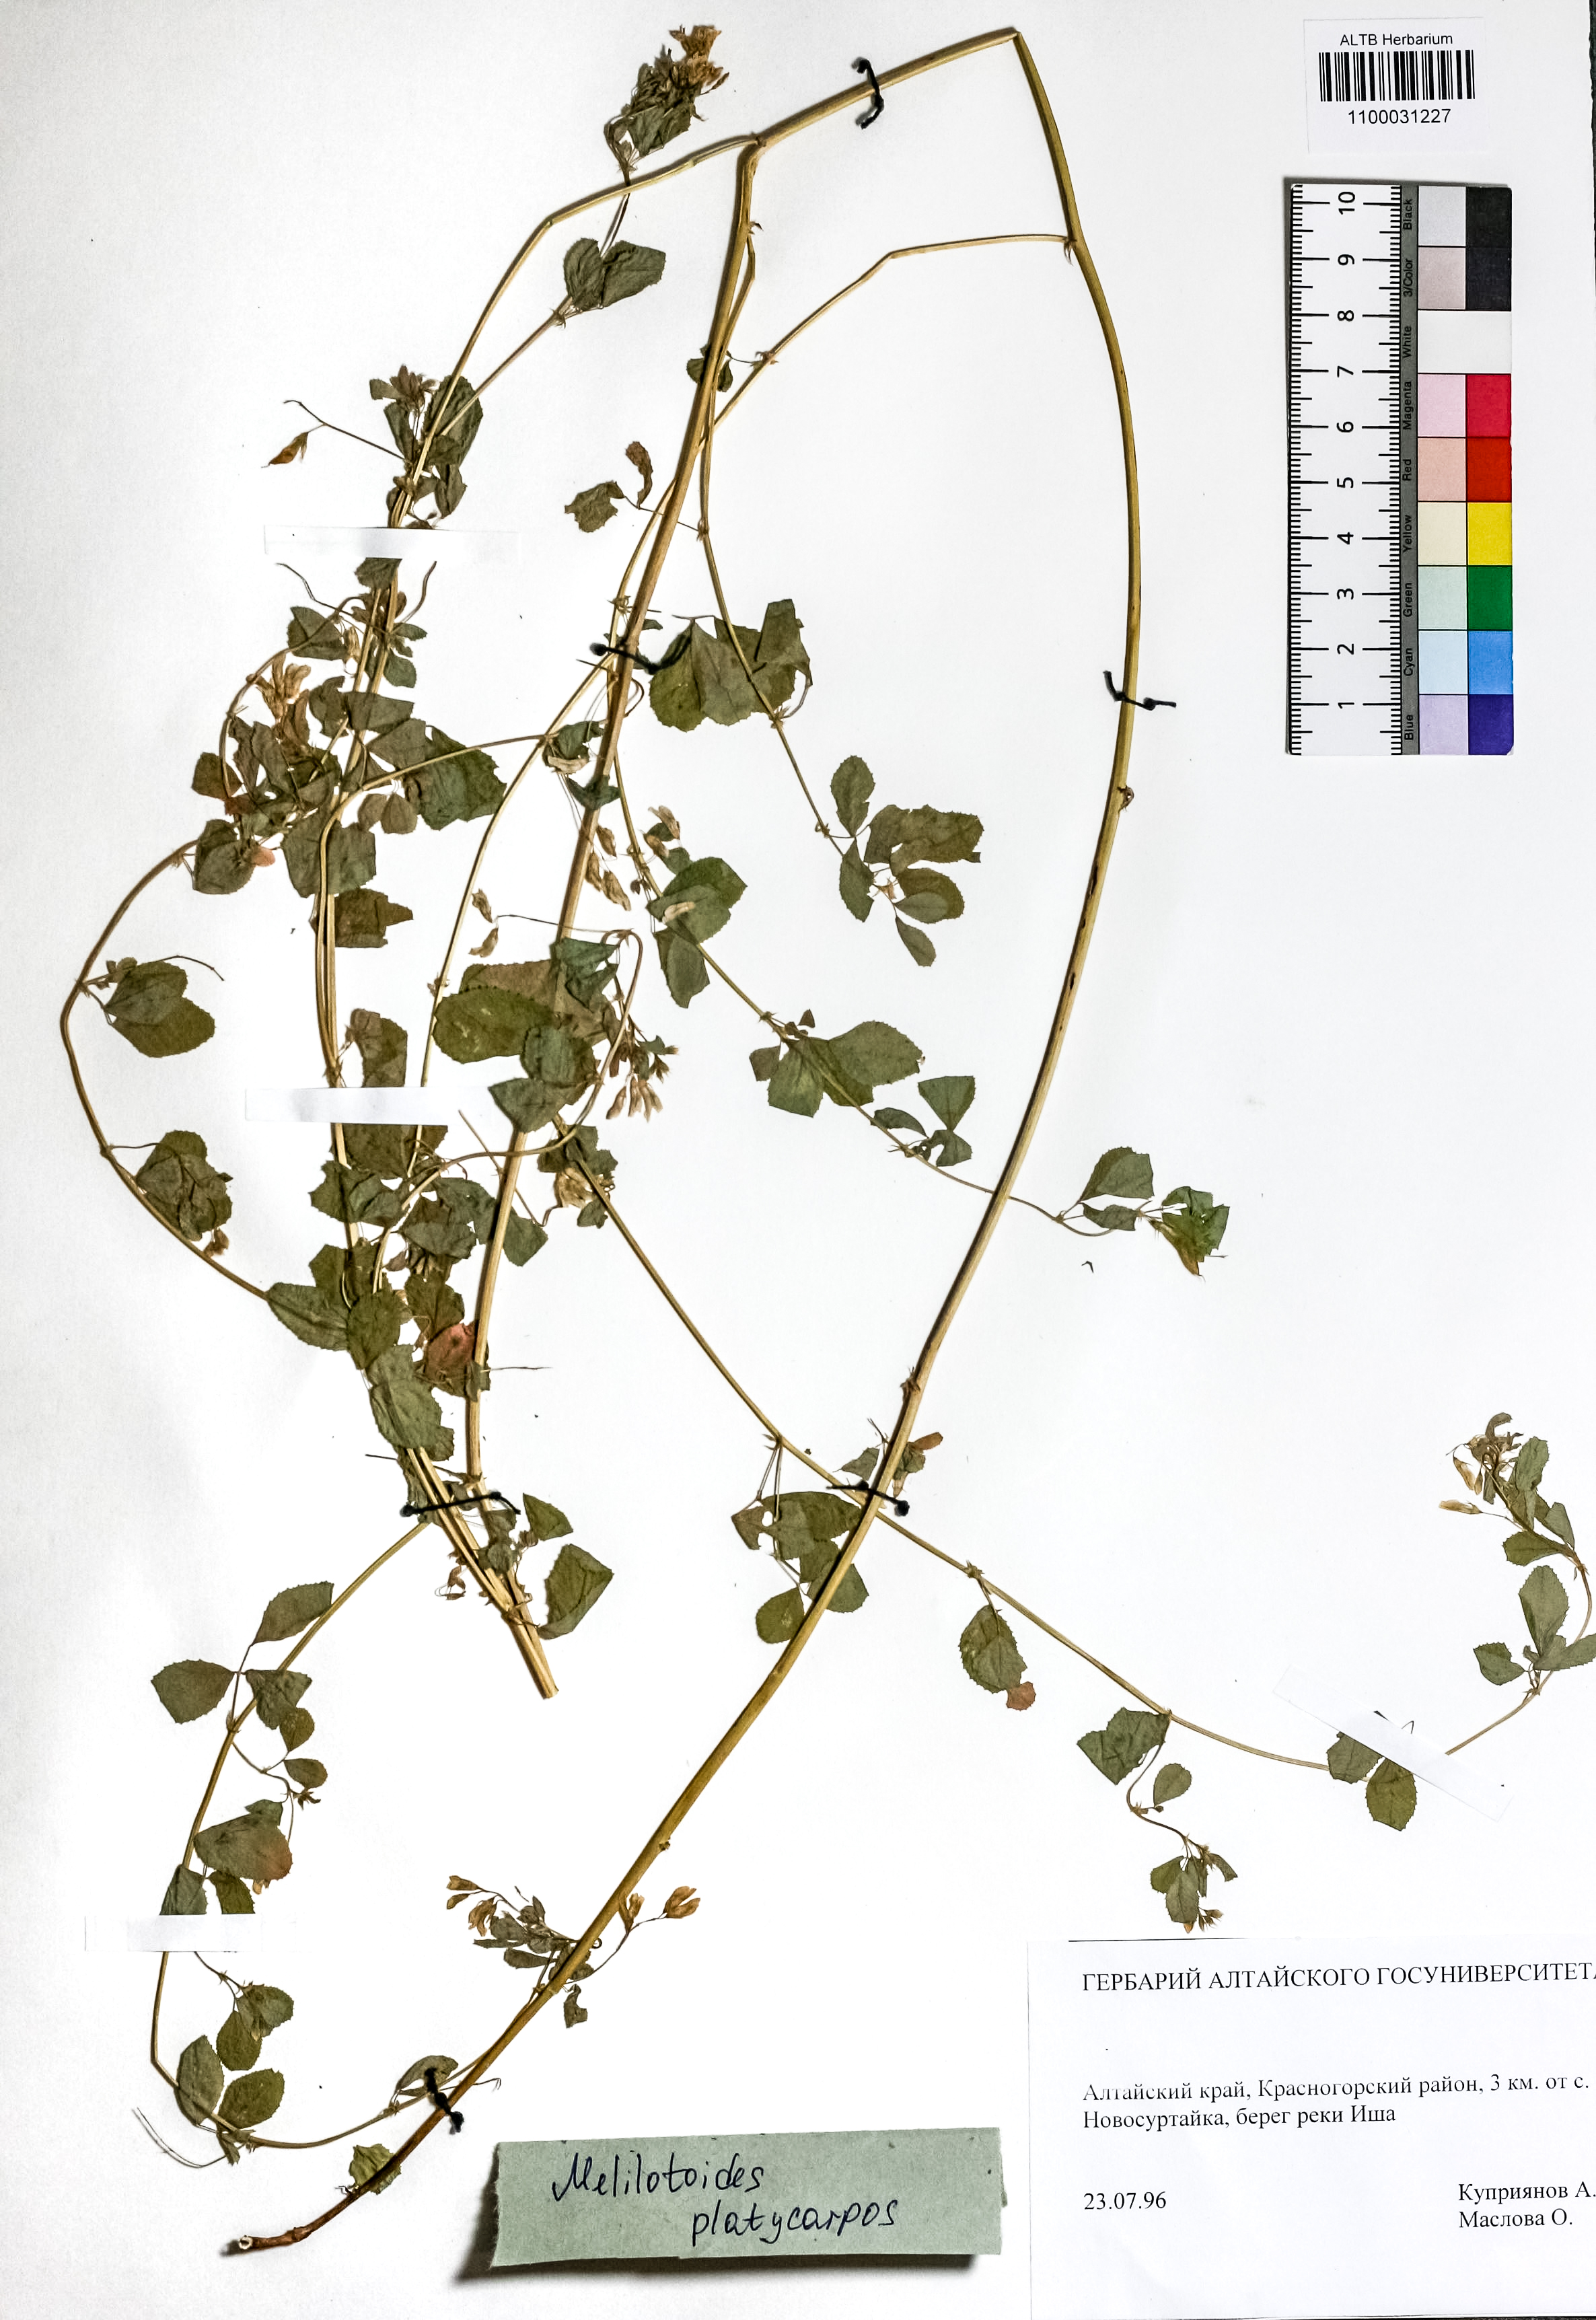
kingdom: Plantae
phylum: Tracheophyta
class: Magnoliopsida
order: Fabales
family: Fabaceae
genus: Medicago
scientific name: Medicago platycarpos
